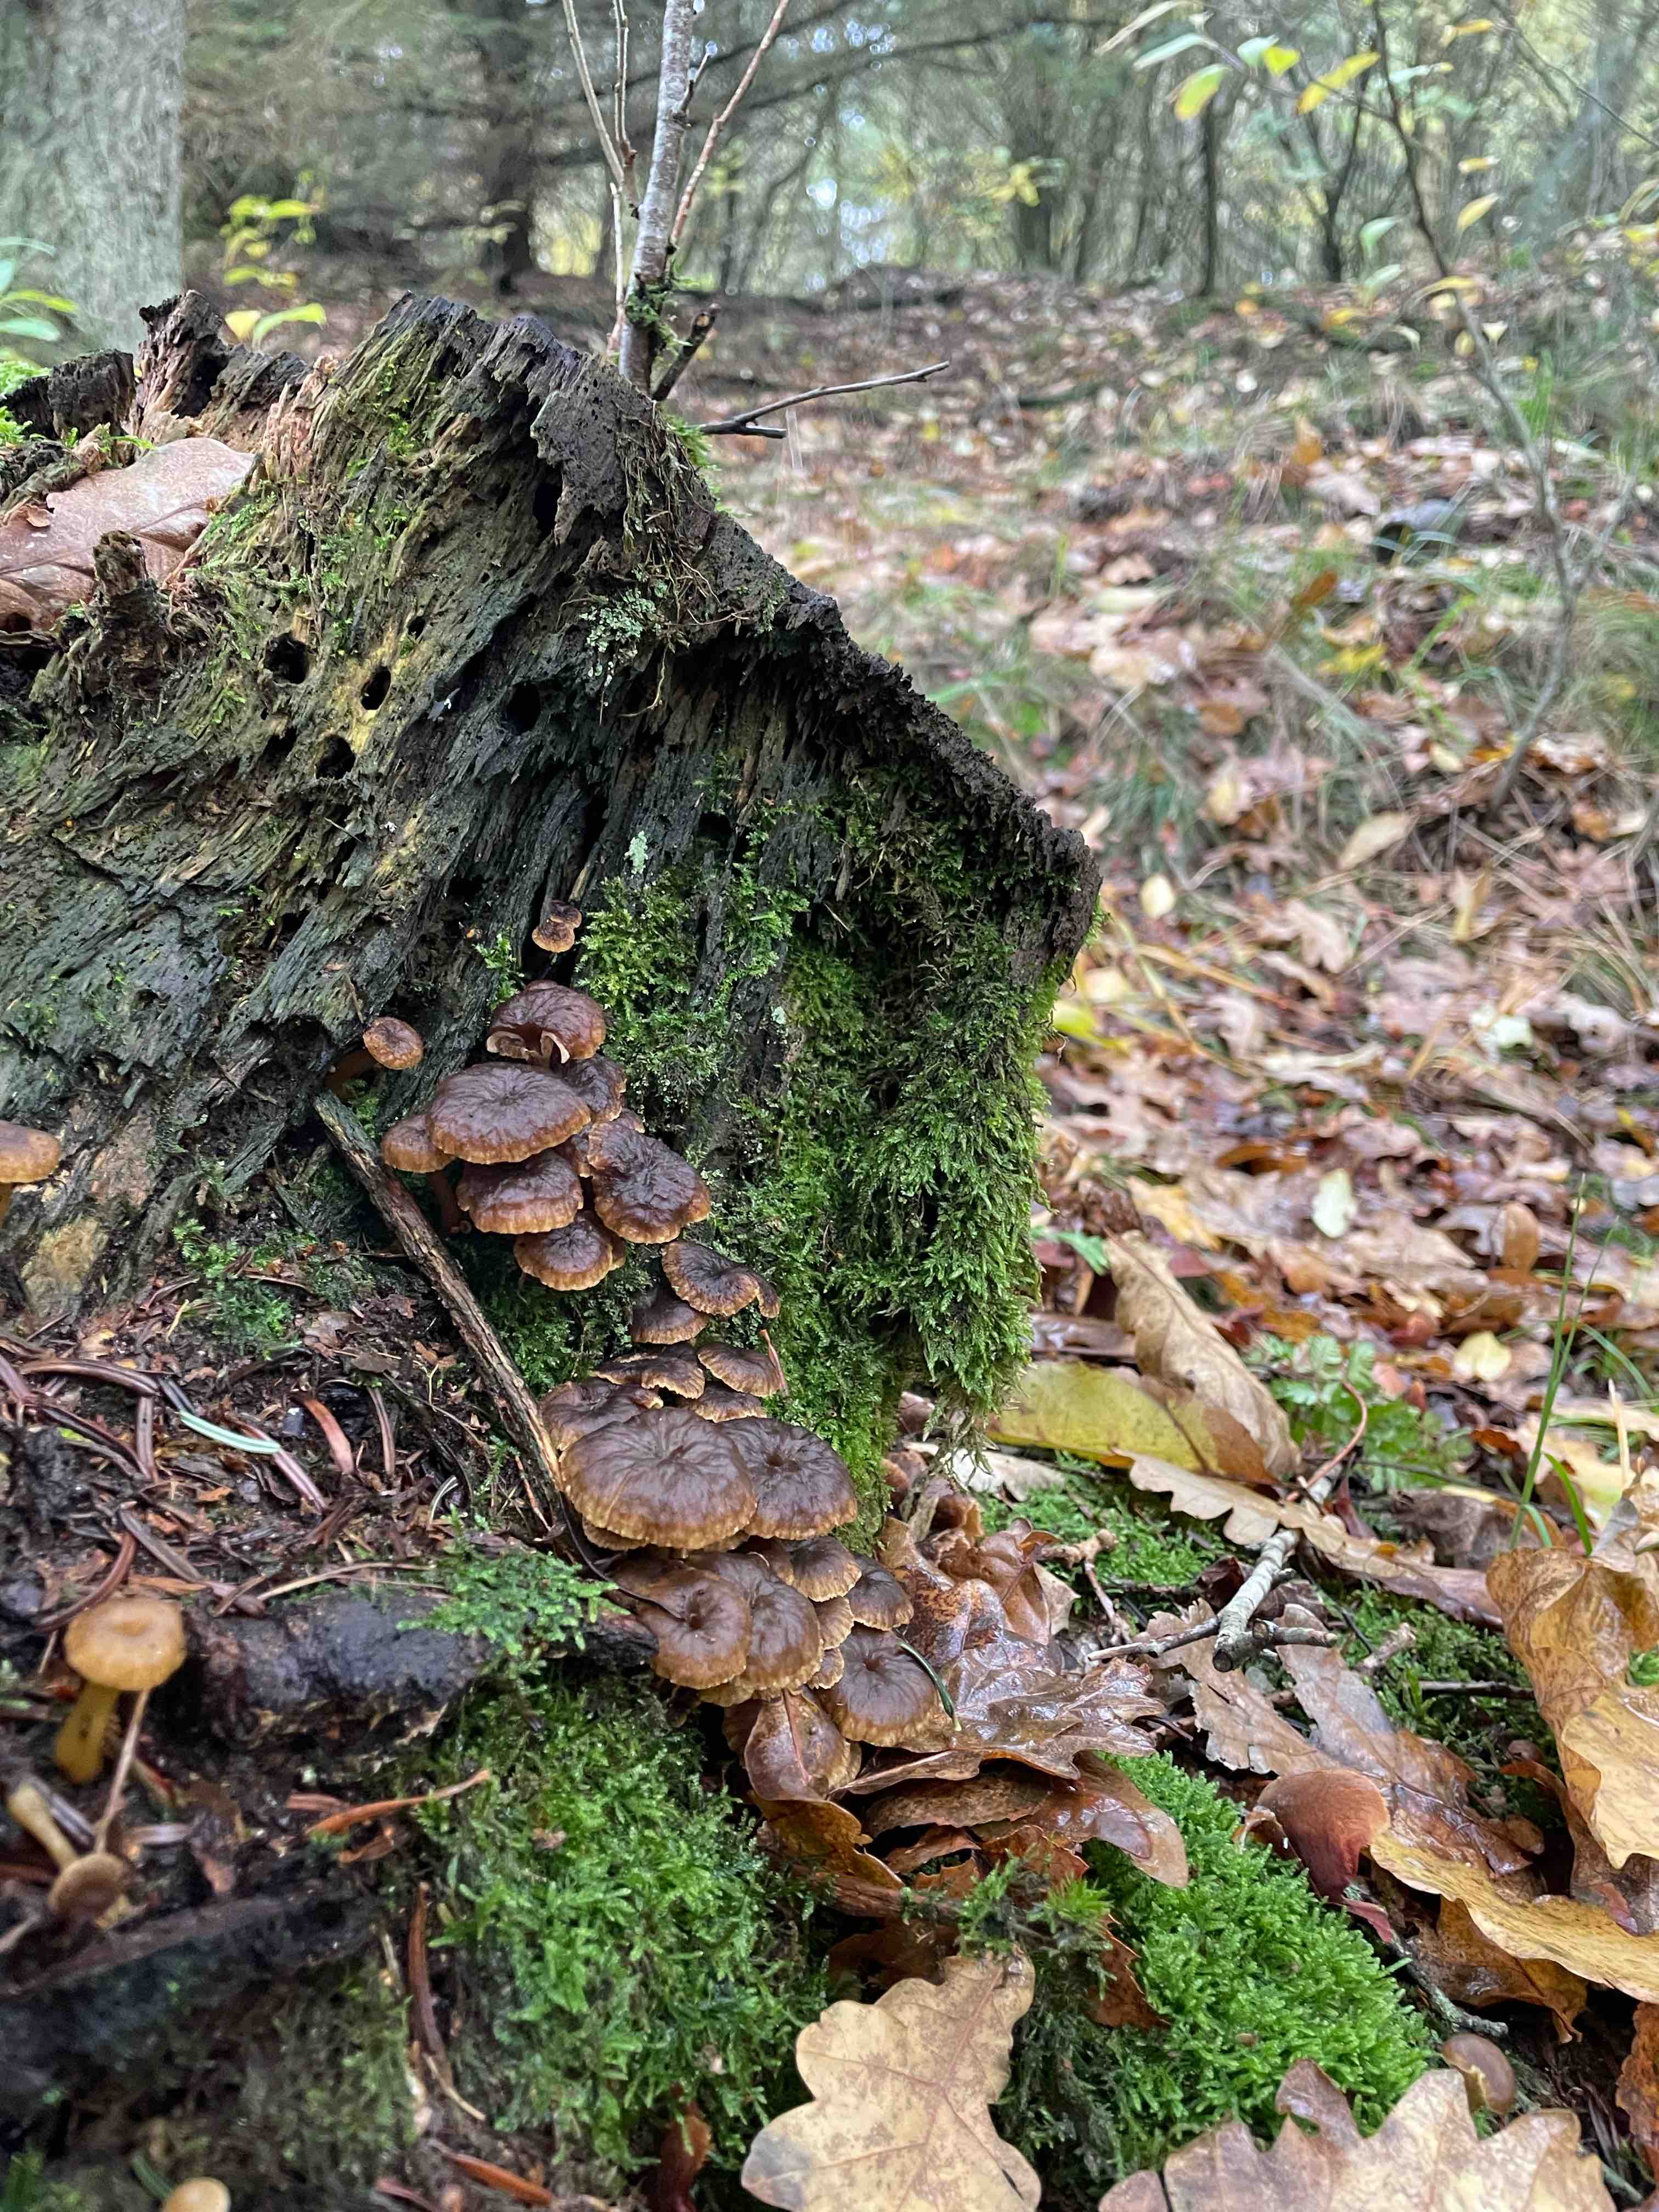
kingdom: Fungi
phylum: Basidiomycota
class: Agaricomycetes
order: Cantharellales
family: Hydnaceae
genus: Craterellus
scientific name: Craterellus tubaeformis
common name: tragt-kantarel
